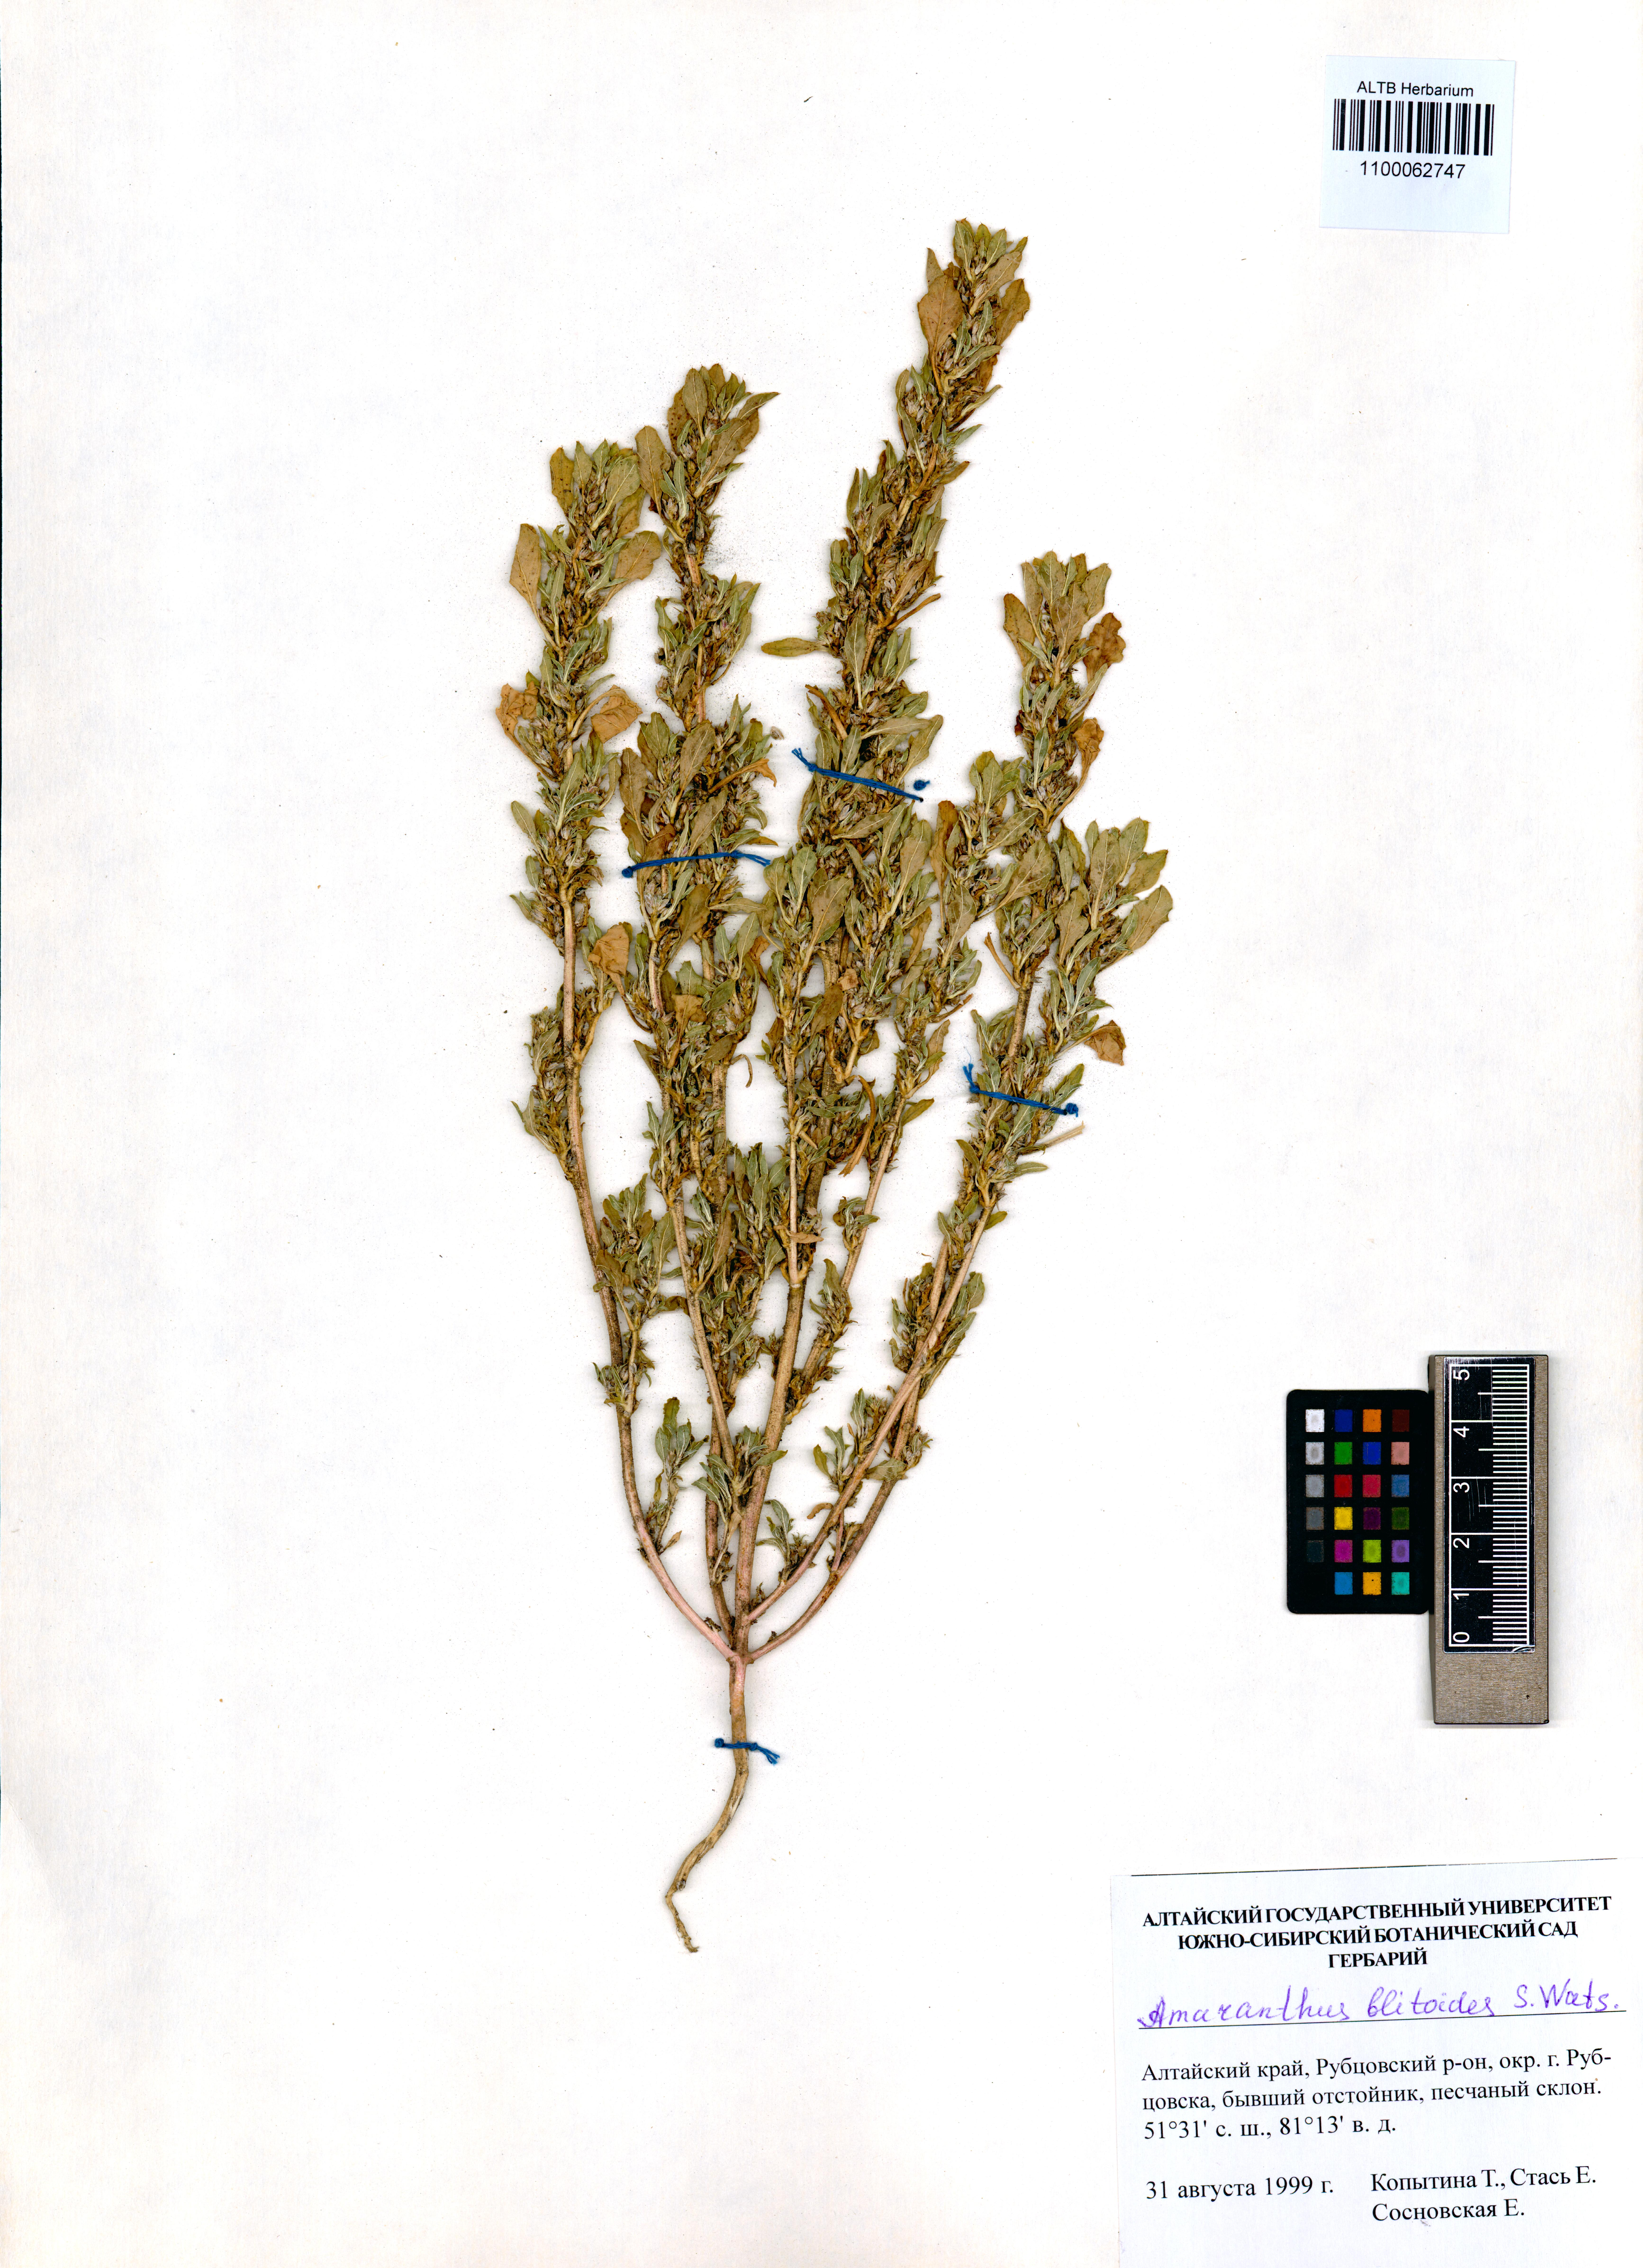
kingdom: Plantae
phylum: Tracheophyta
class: Magnoliopsida
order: Caryophyllales
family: Amaranthaceae
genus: Amaranthus
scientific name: Amaranthus blitoides
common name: Prostrate pigweed
